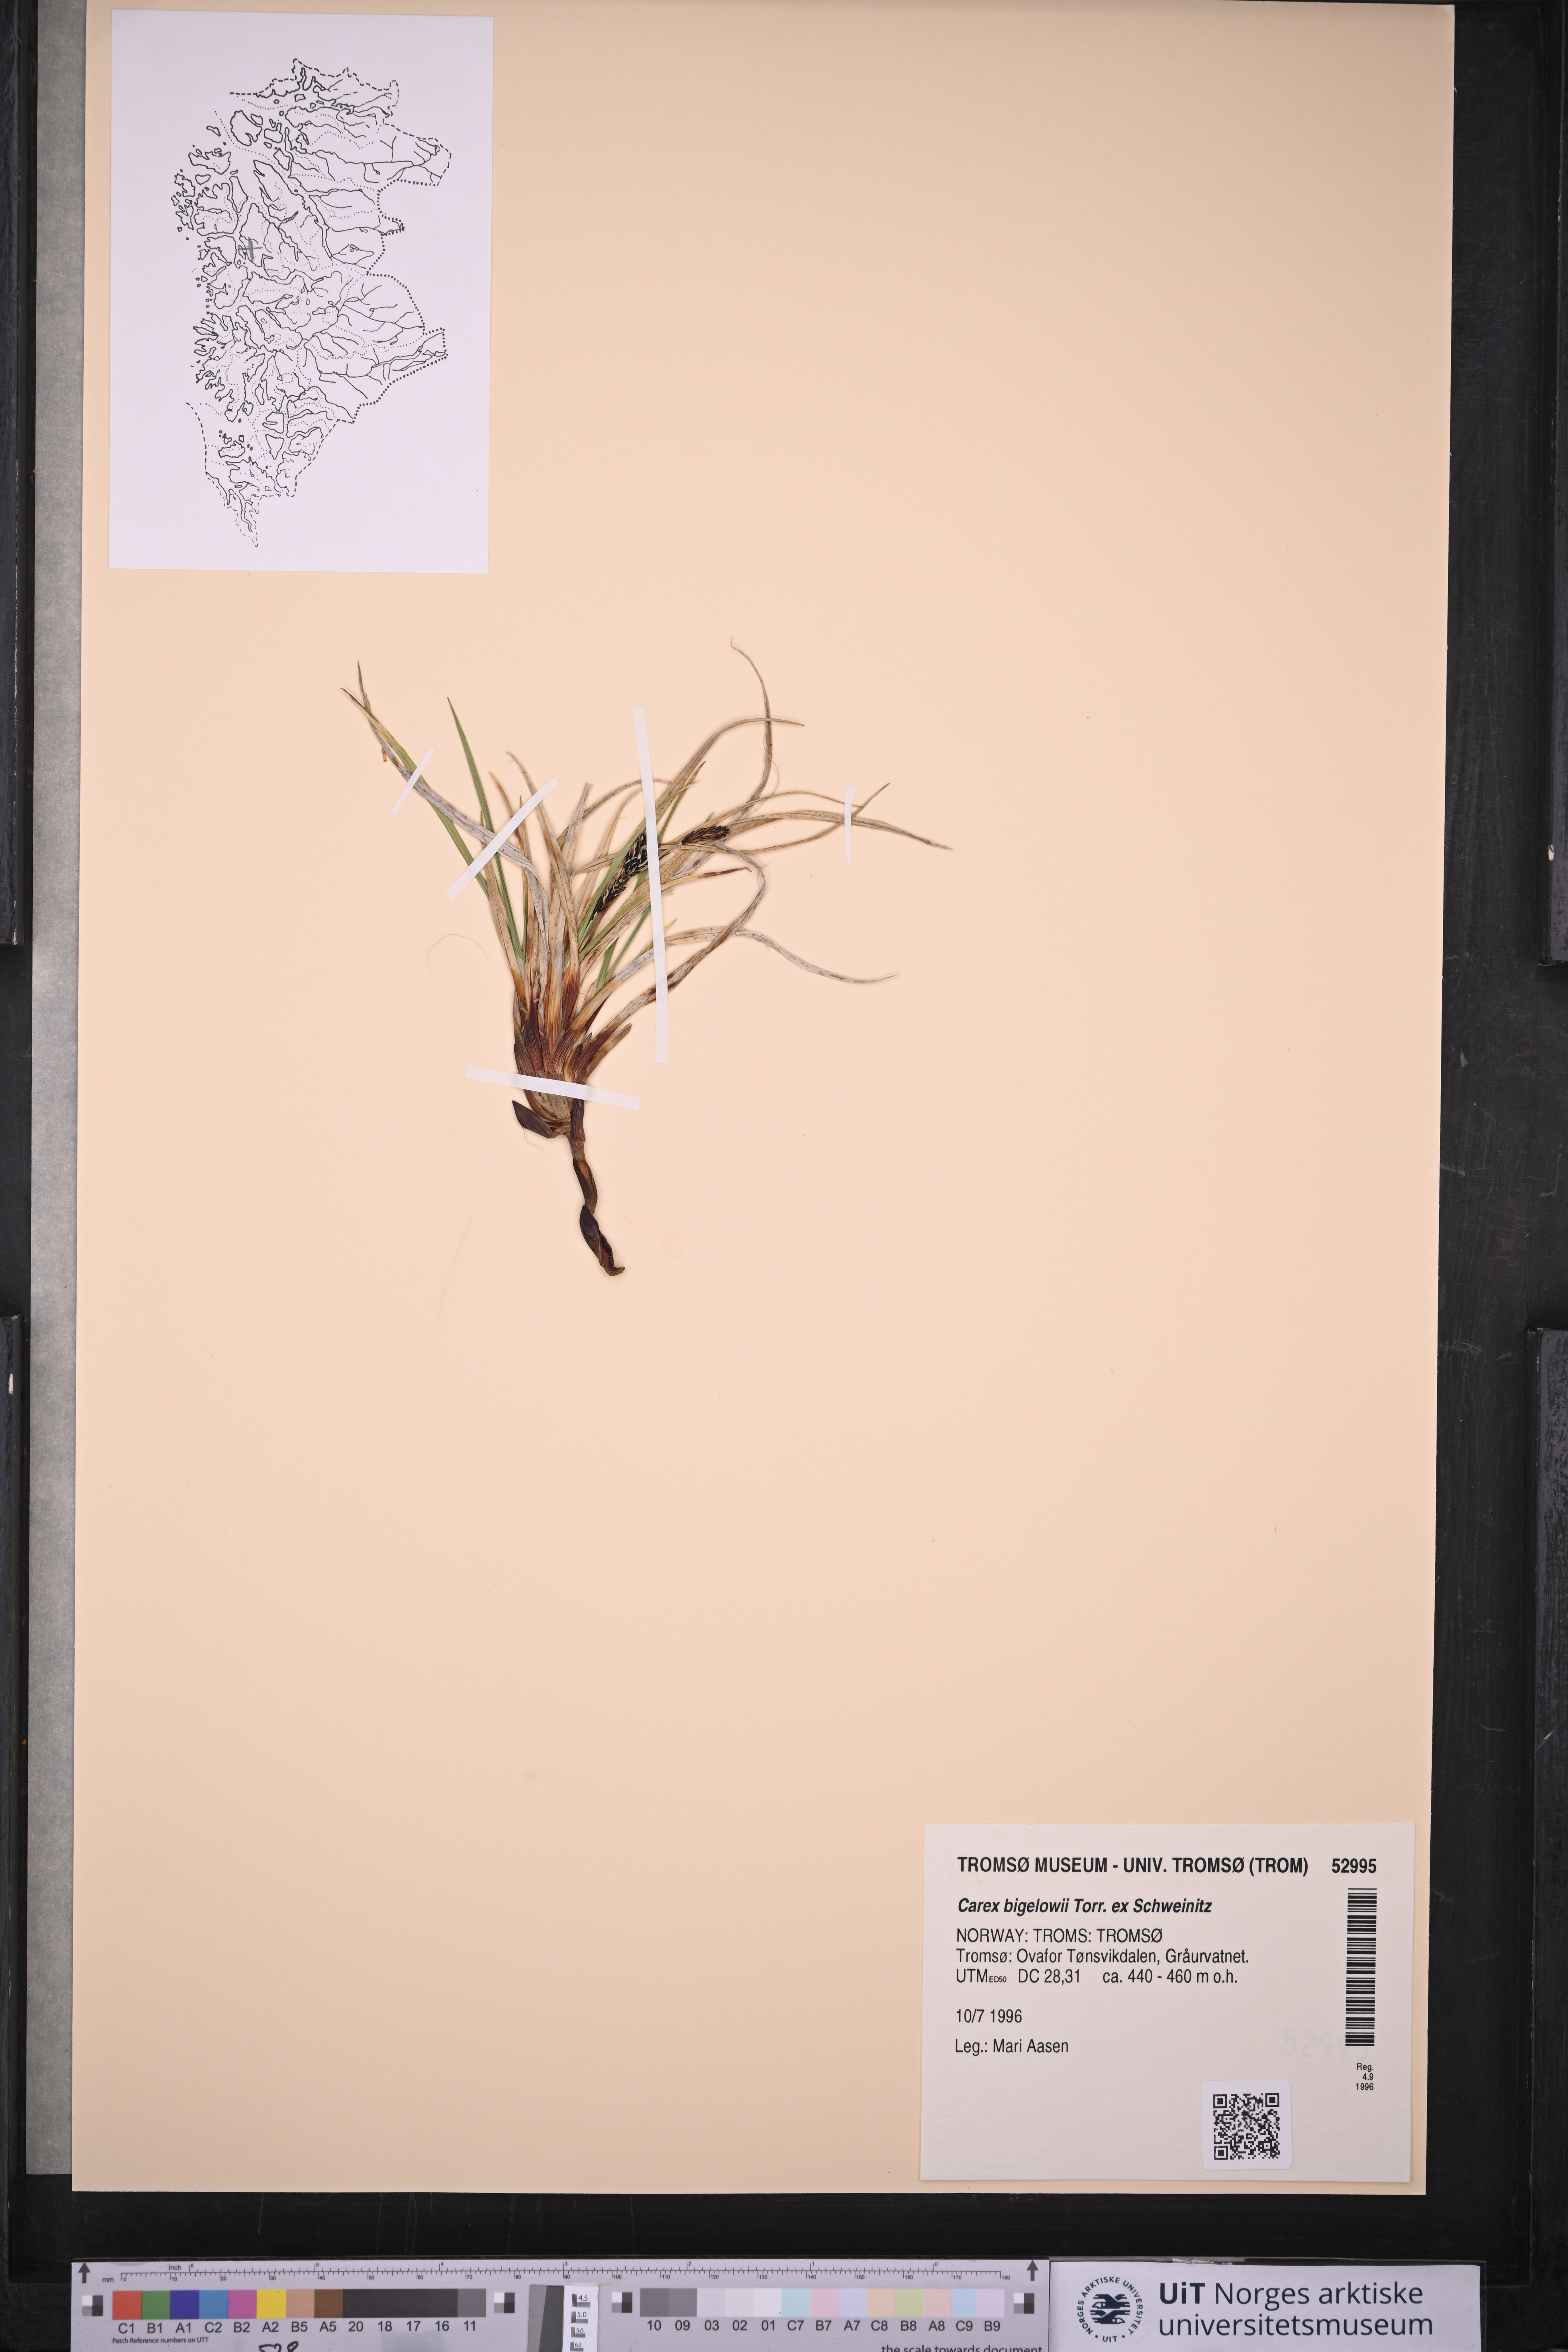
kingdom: Plantae
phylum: Tracheophyta
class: Liliopsida
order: Poales
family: Cyperaceae
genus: Carex
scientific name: Carex bigelowii
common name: Stiff sedge
